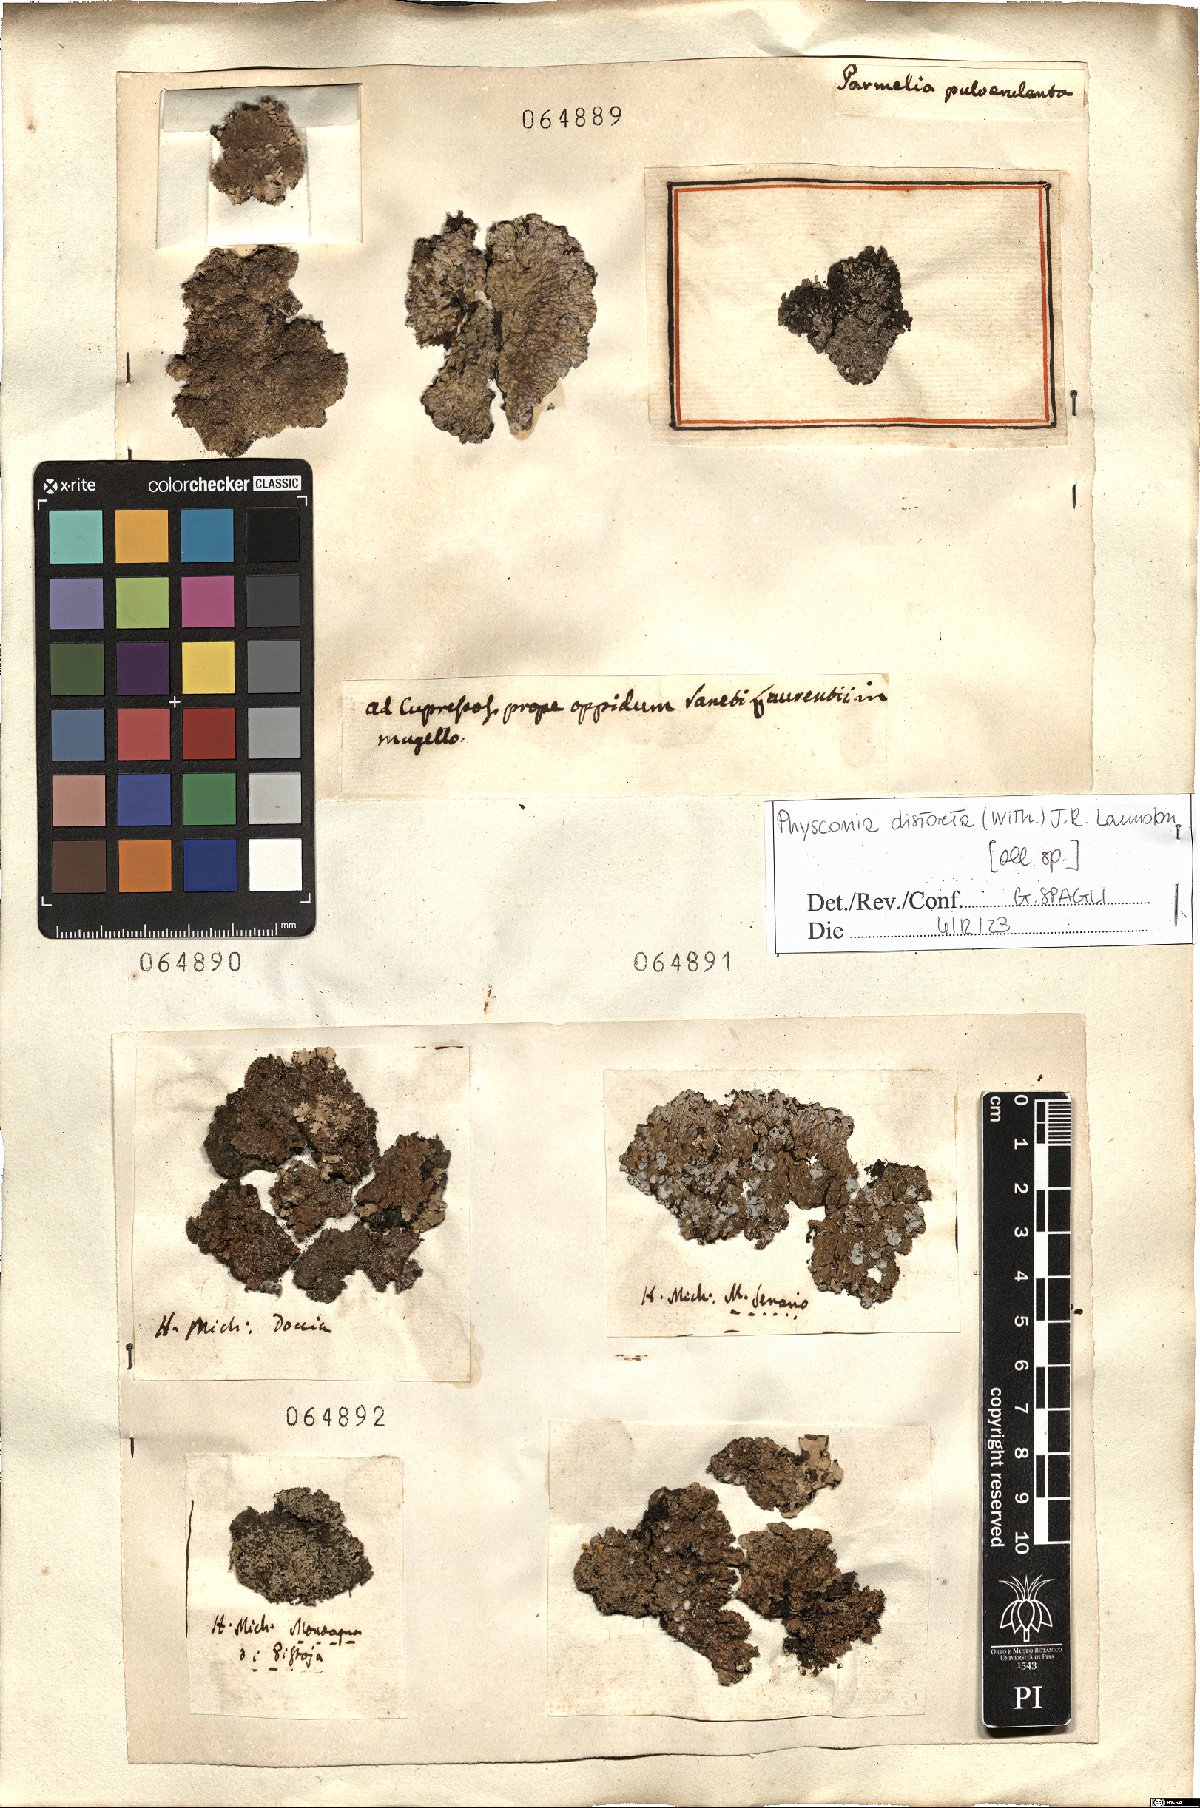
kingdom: Fungi
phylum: Ascomycota
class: Lecanoromycetes
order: Caliciales
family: Physciaceae
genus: Physconia
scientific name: Physconia distorta
